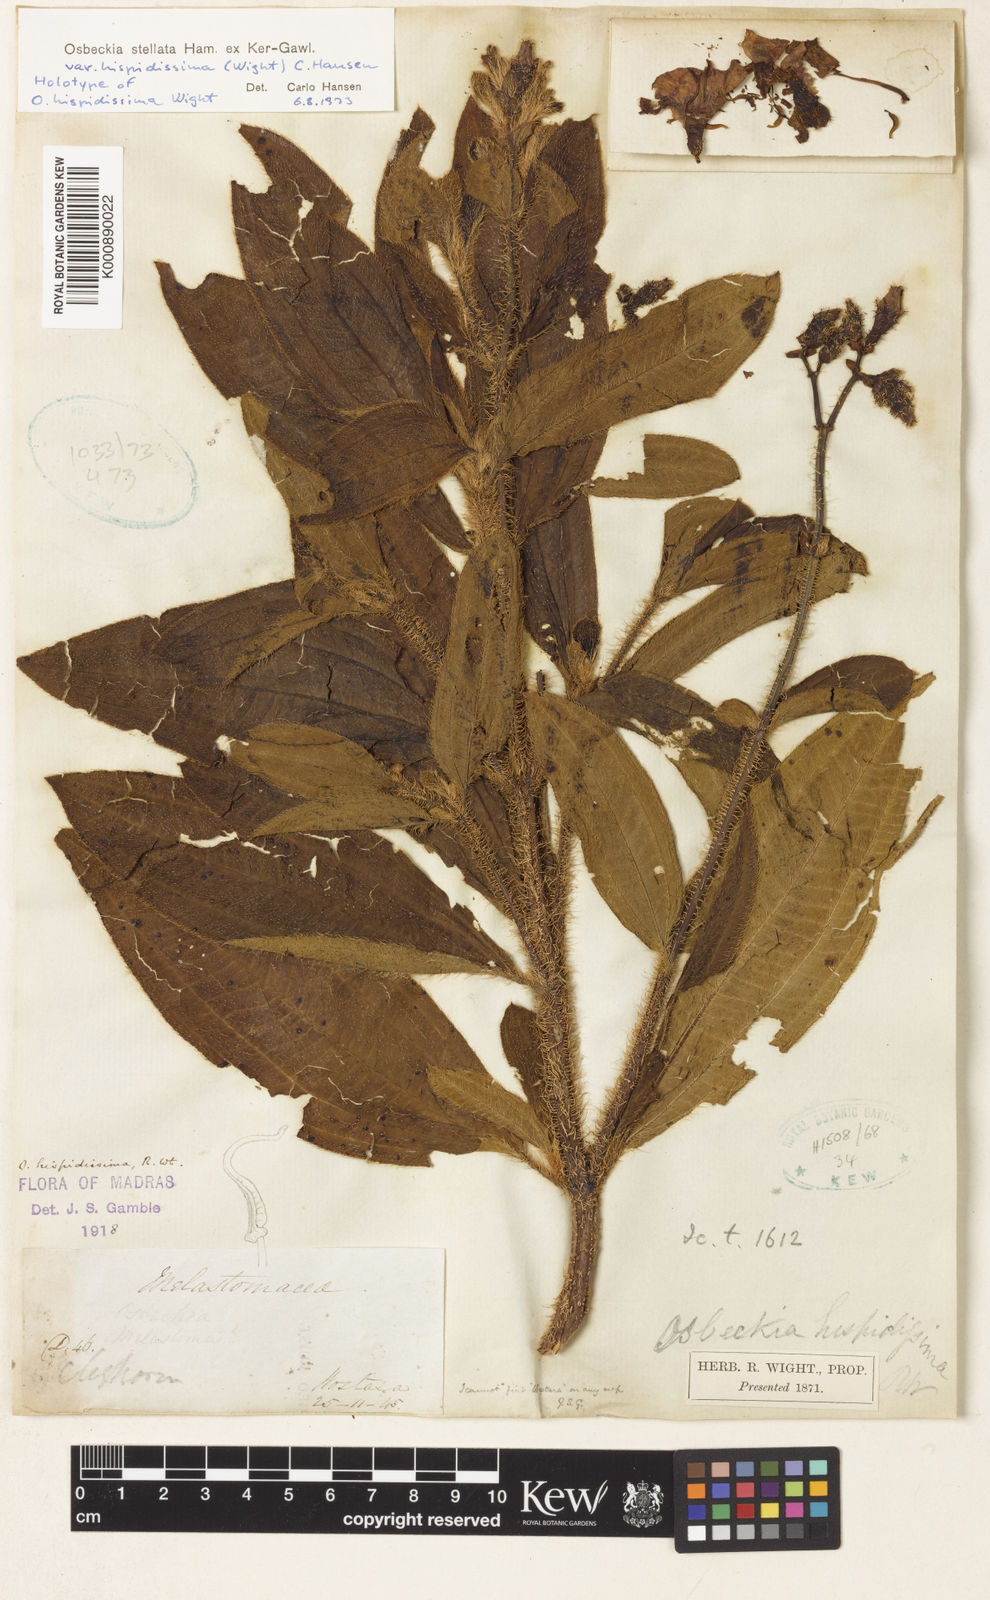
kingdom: Plantae
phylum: Tracheophyta
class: Magnoliopsida
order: Myrtales
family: Melastomataceae
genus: Osbeckia
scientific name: Osbeckia hispidissima
